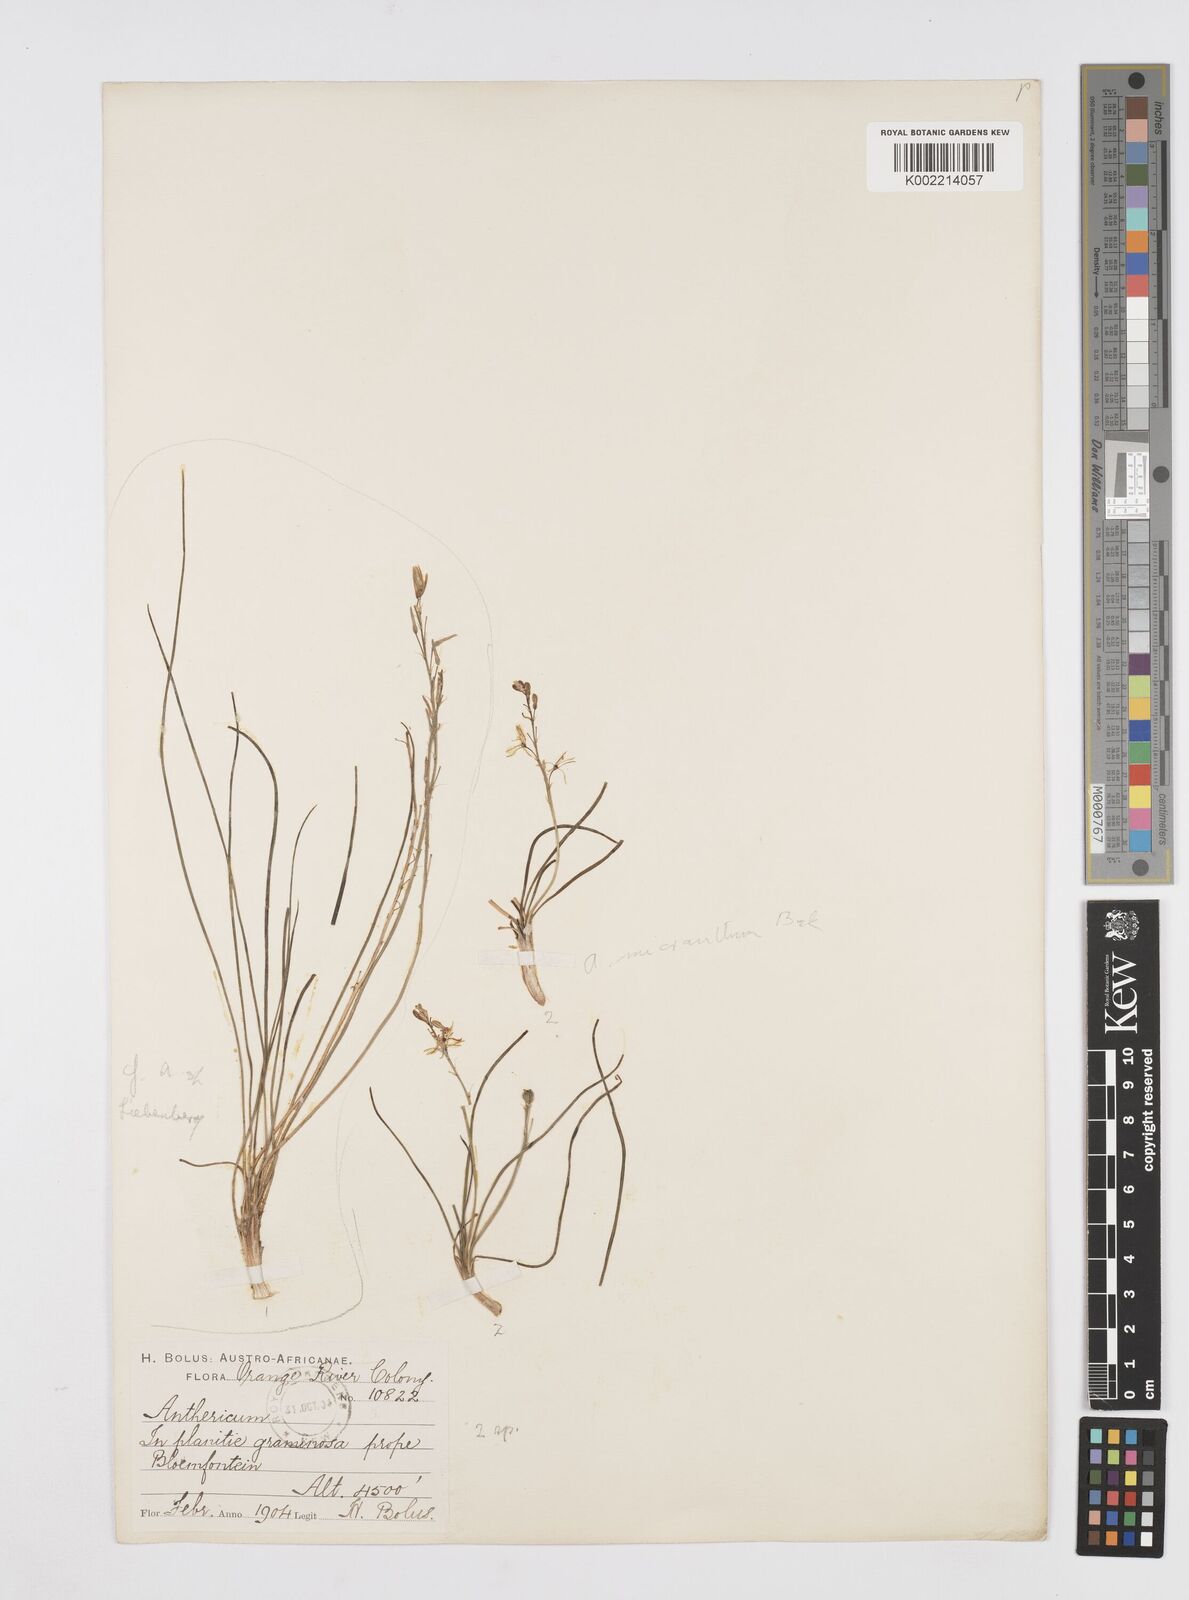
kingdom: Plantae
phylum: Tracheophyta
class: Liliopsida
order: Asparagales
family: Asphodelaceae
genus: Trachyandra
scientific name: Trachyandra
